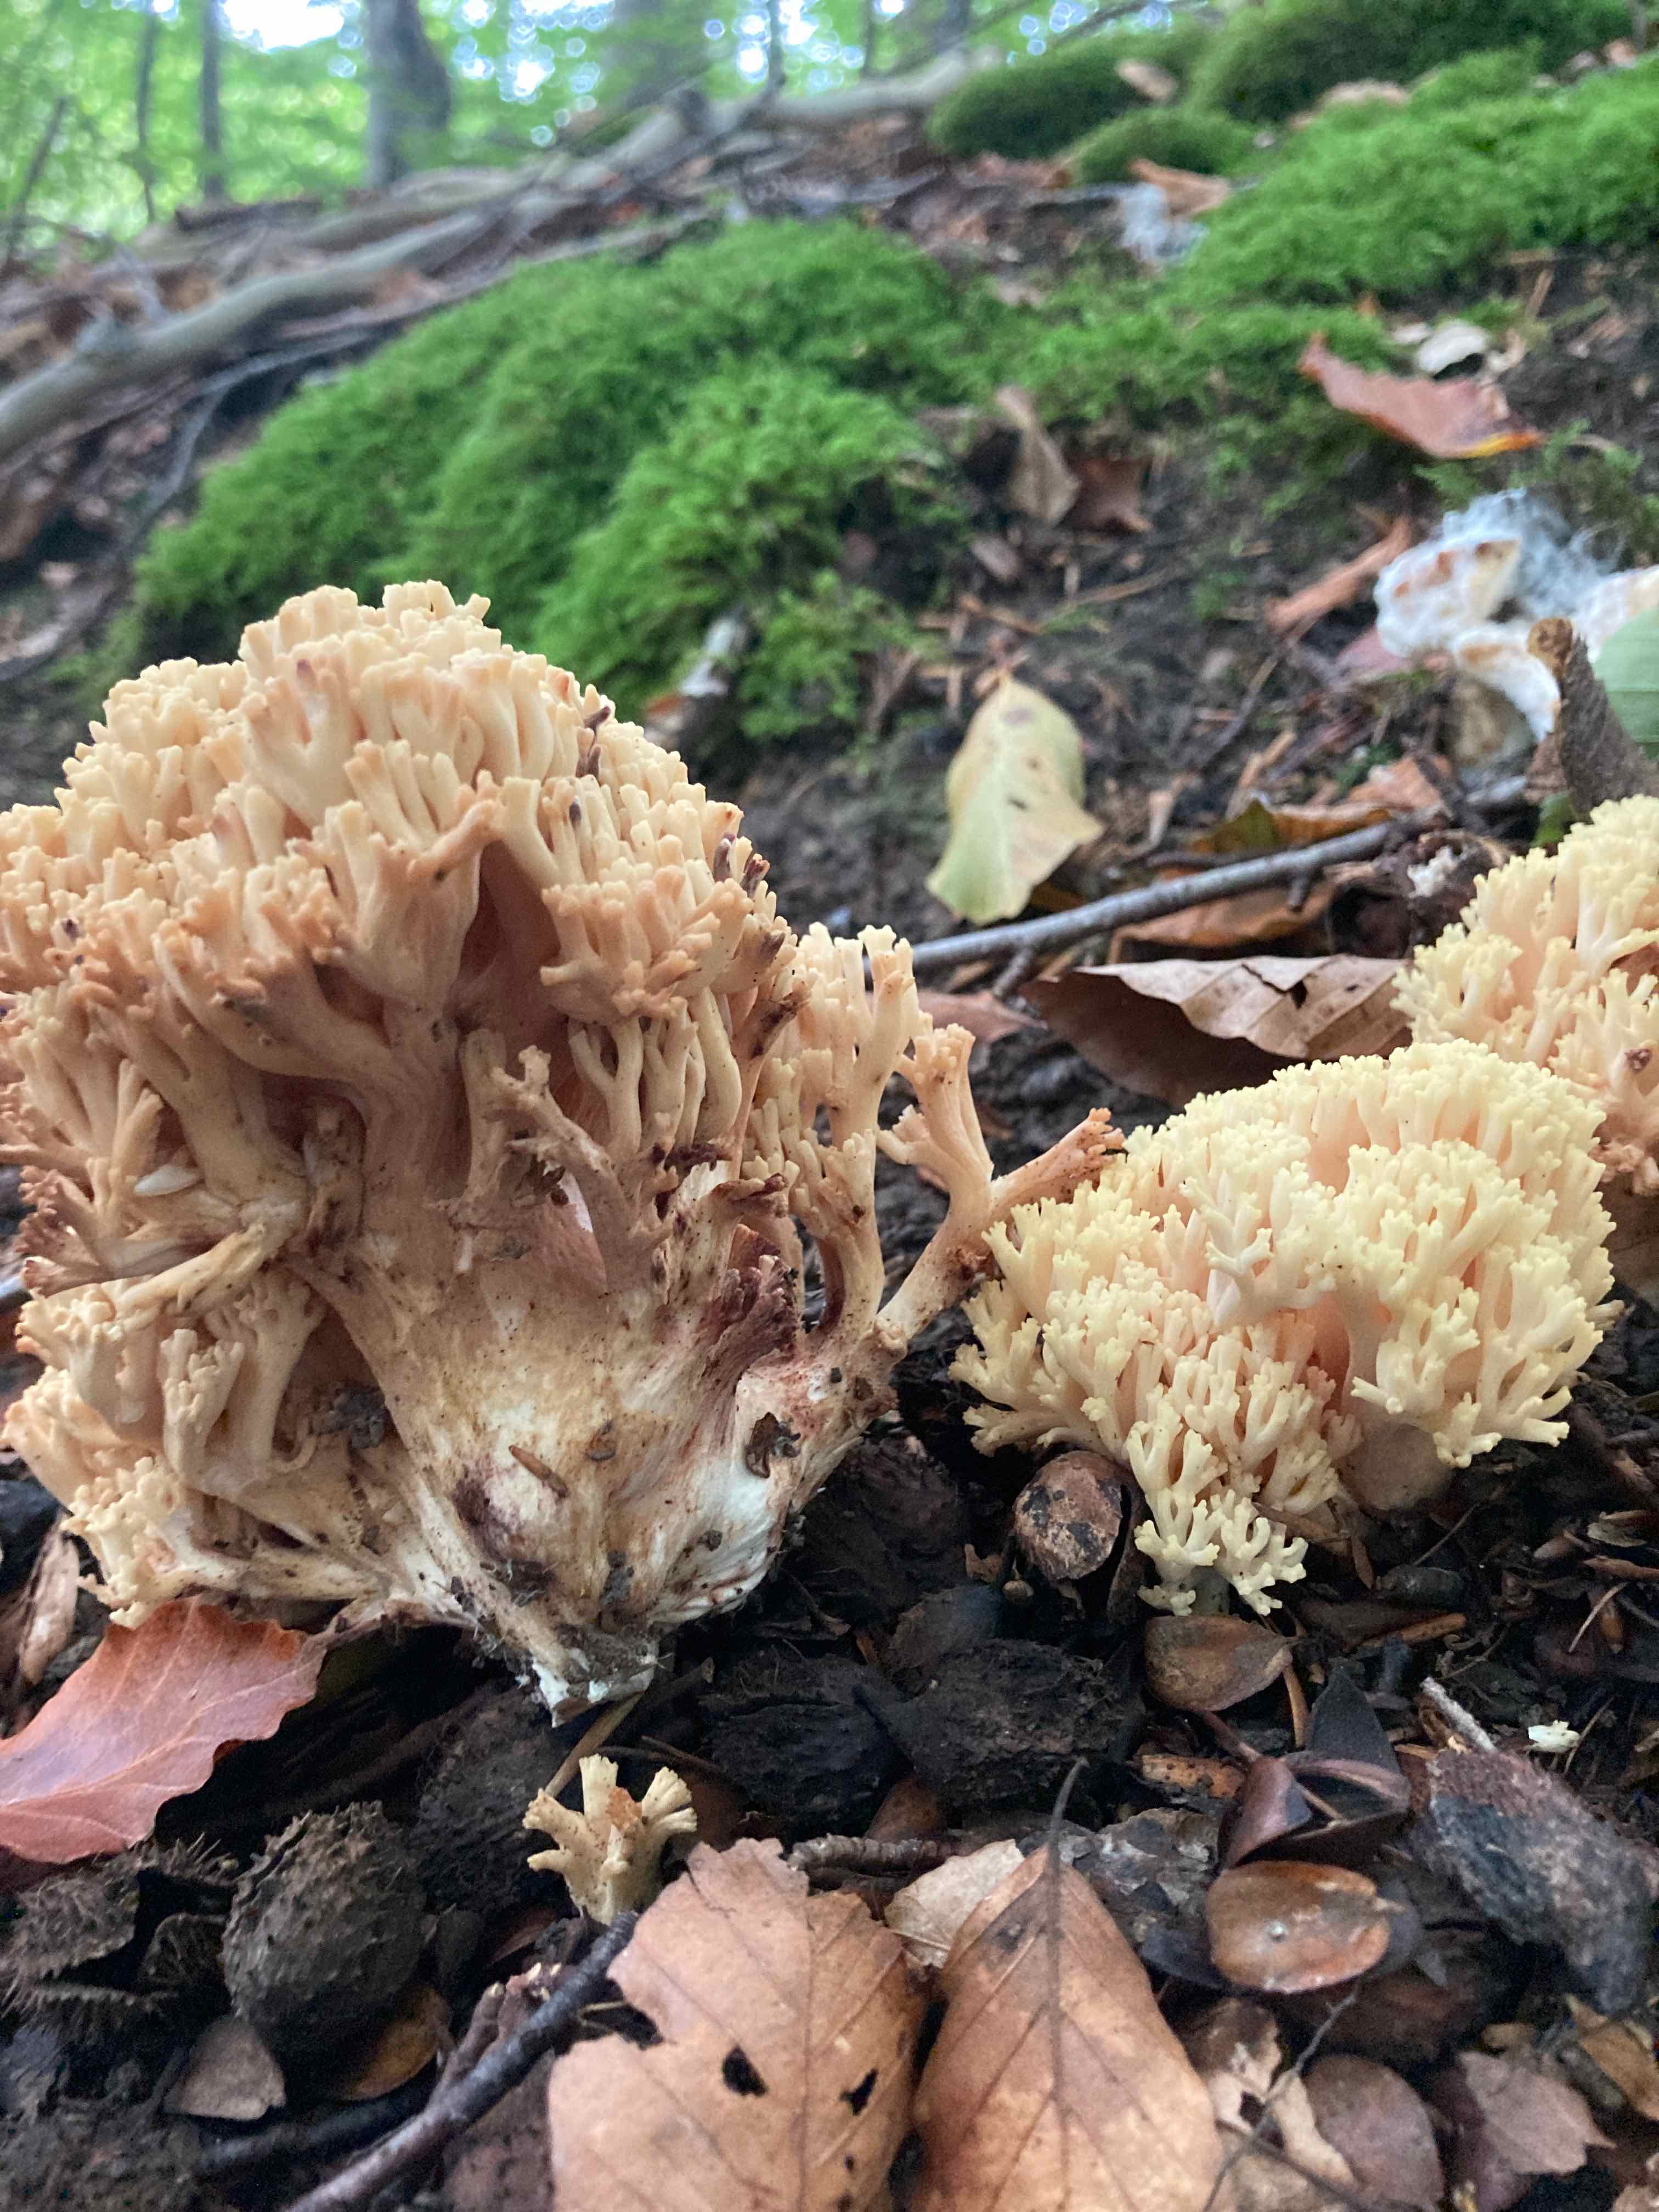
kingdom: Fungi
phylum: Basidiomycota
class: Agaricomycetes
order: Gomphales
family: Gomphaceae
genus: Ramaria
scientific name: Ramaria sanguinea
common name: blodplettet koralsvamp
